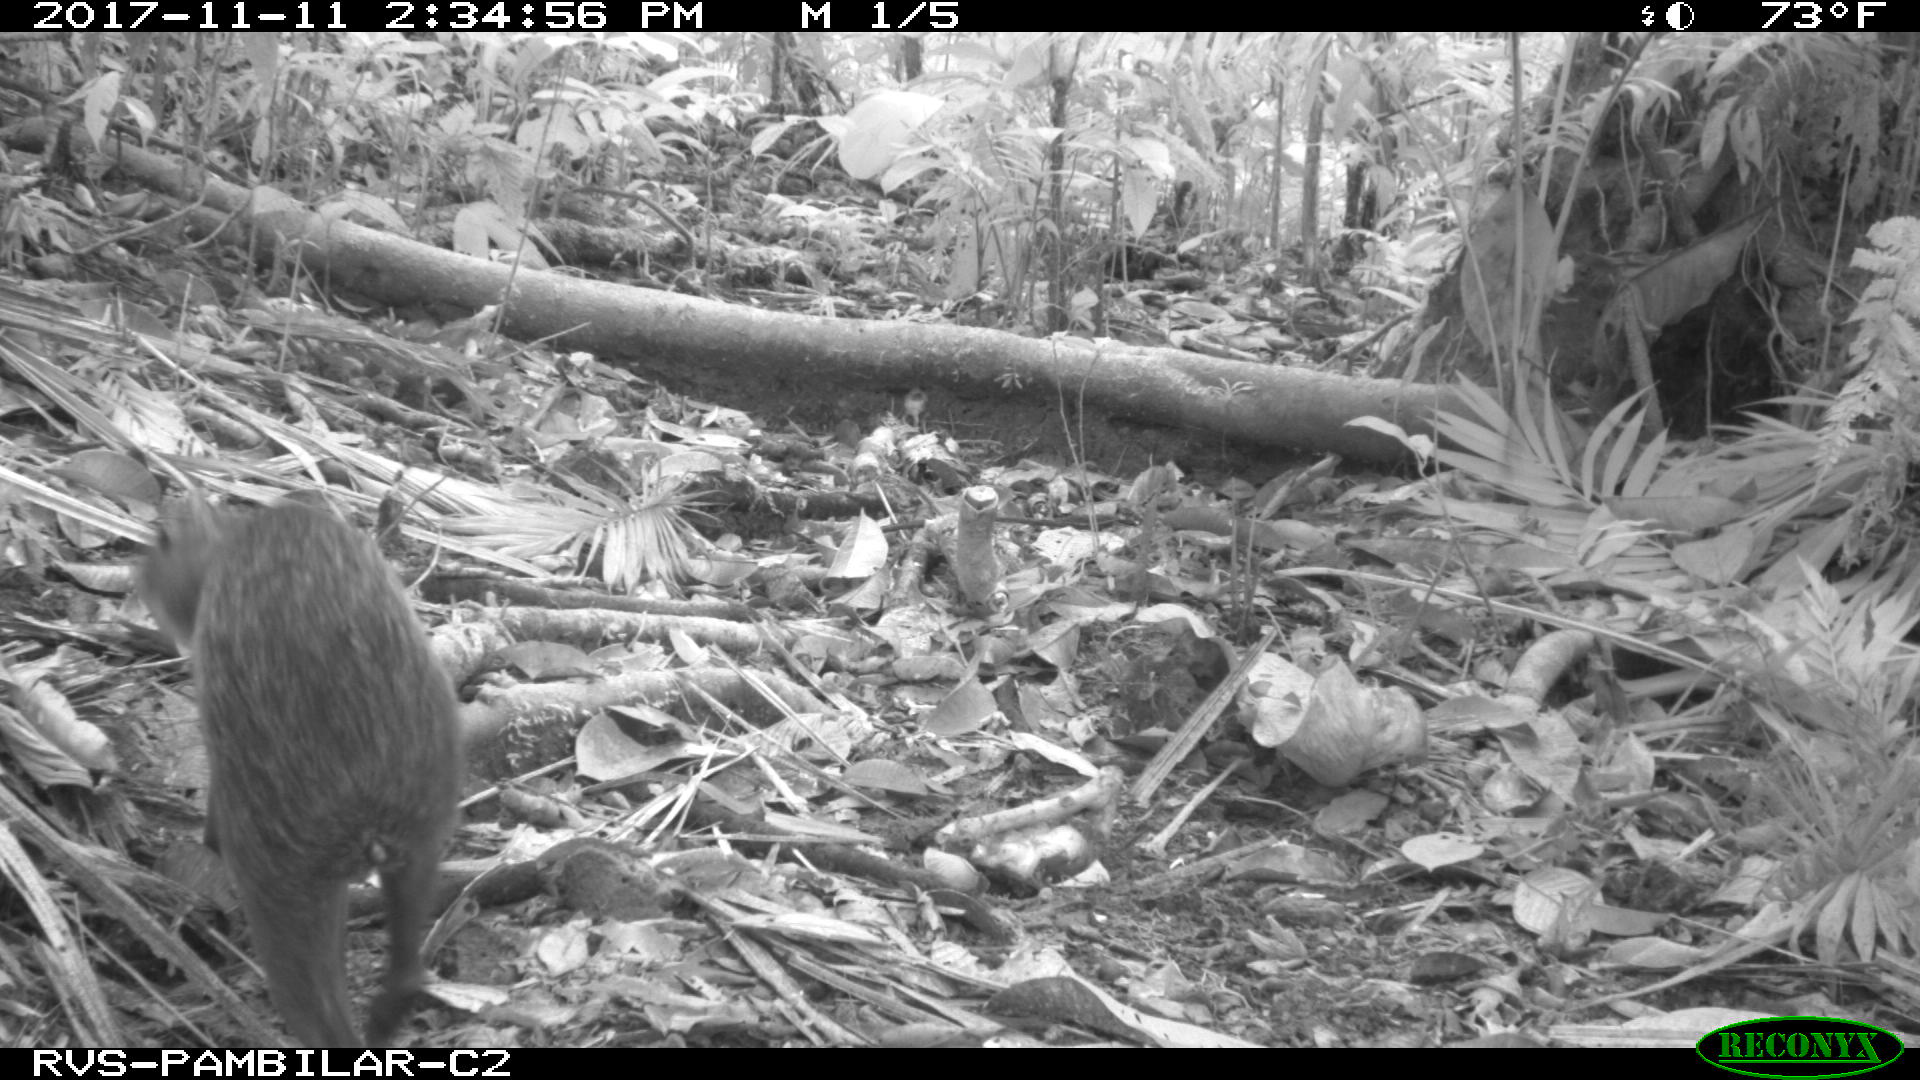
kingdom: Animalia
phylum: Chordata
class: Mammalia
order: Rodentia
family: Dasyproctidae
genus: Dasyprocta
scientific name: Dasyprocta punctata
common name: Central american agouti
